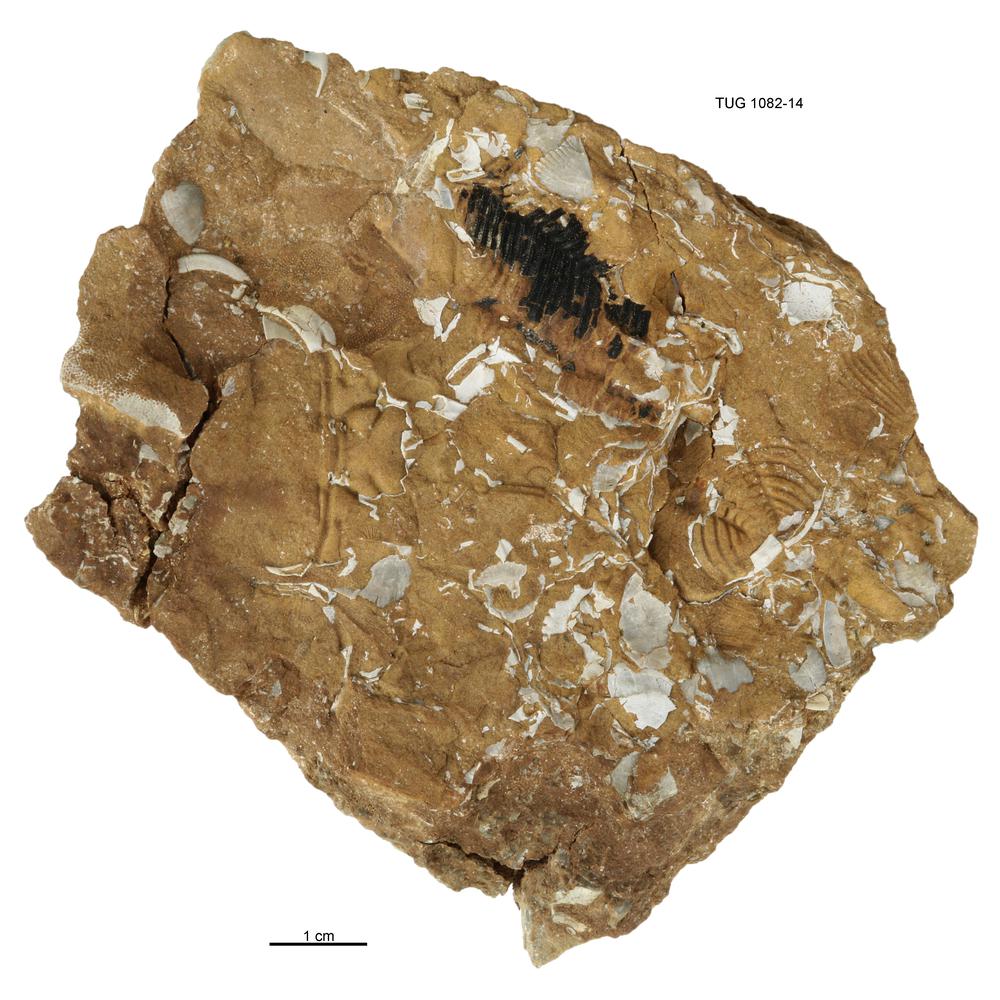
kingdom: Animalia
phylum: Cnidaria
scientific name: Cnidaria
